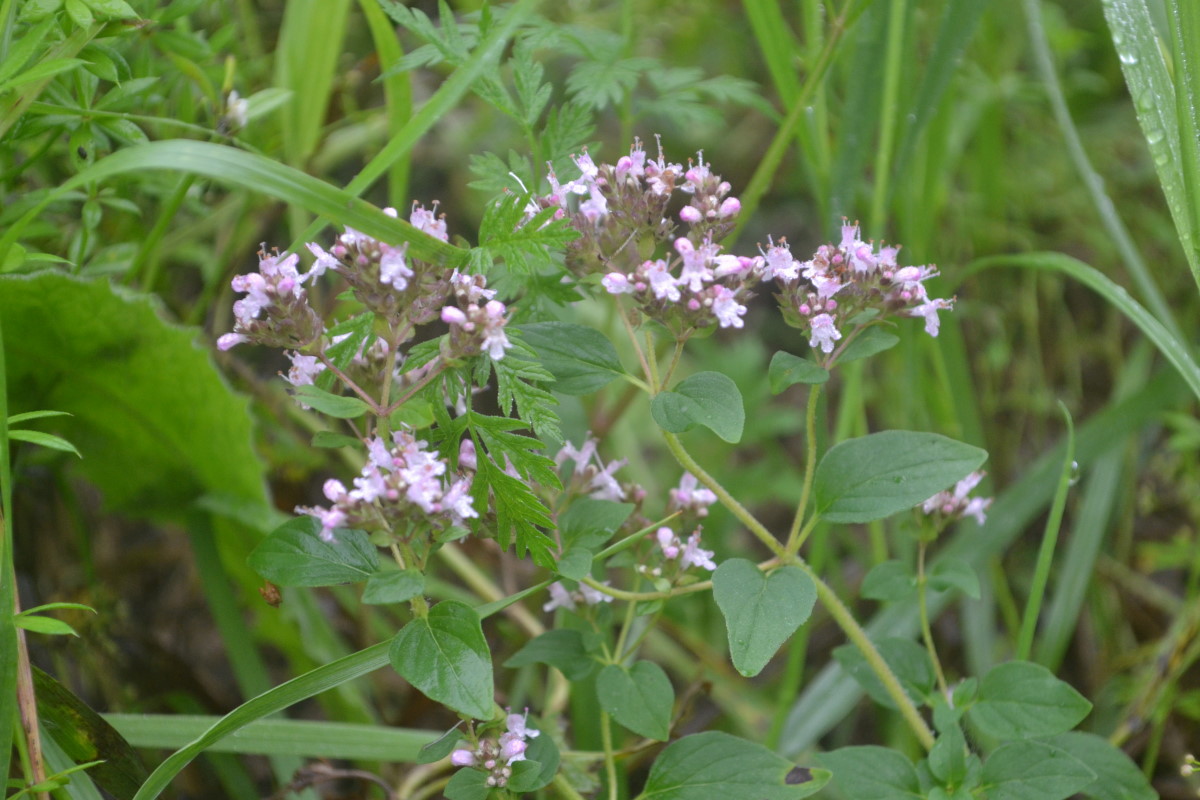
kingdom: Plantae
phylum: Tracheophyta
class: Magnoliopsida
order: Lamiales
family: Lamiaceae
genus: Origanum
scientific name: Origanum vulgare
